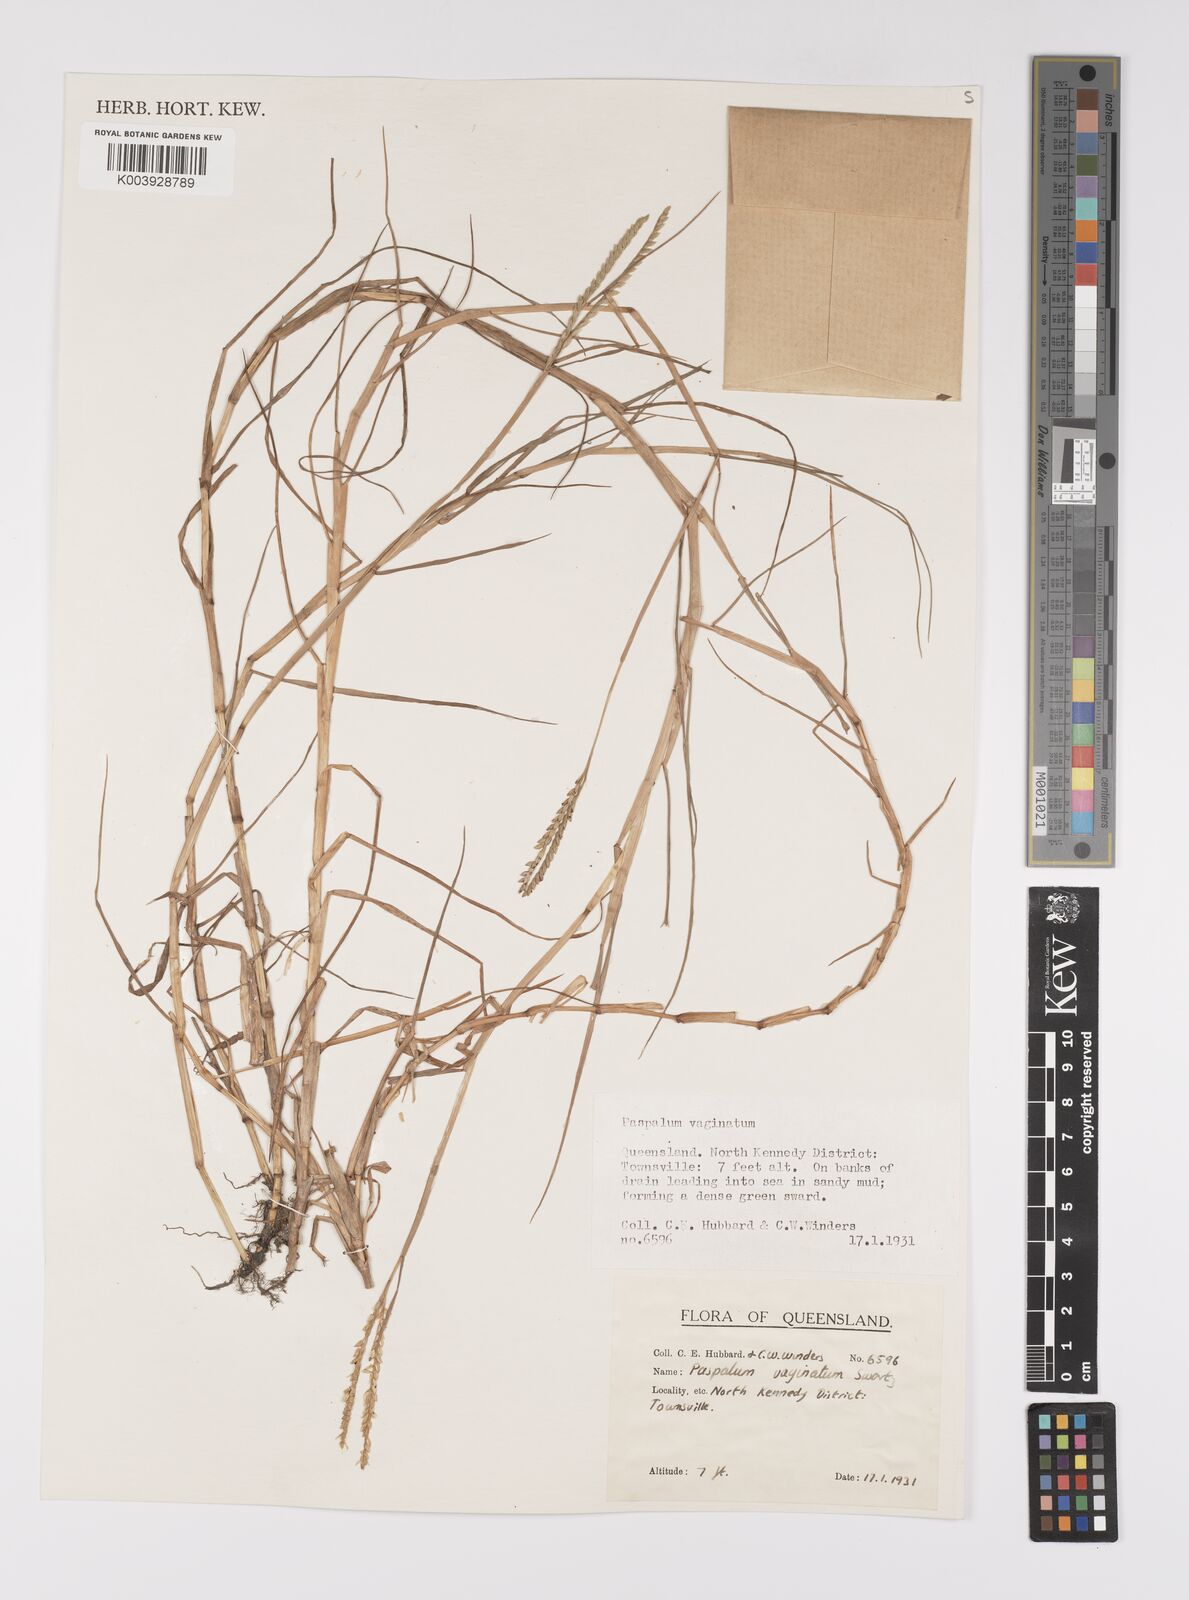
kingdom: Plantae
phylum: Tracheophyta
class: Liliopsida
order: Poales
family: Poaceae
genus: Paspalum
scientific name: Paspalum vaginatum
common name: Seashore paspalum
